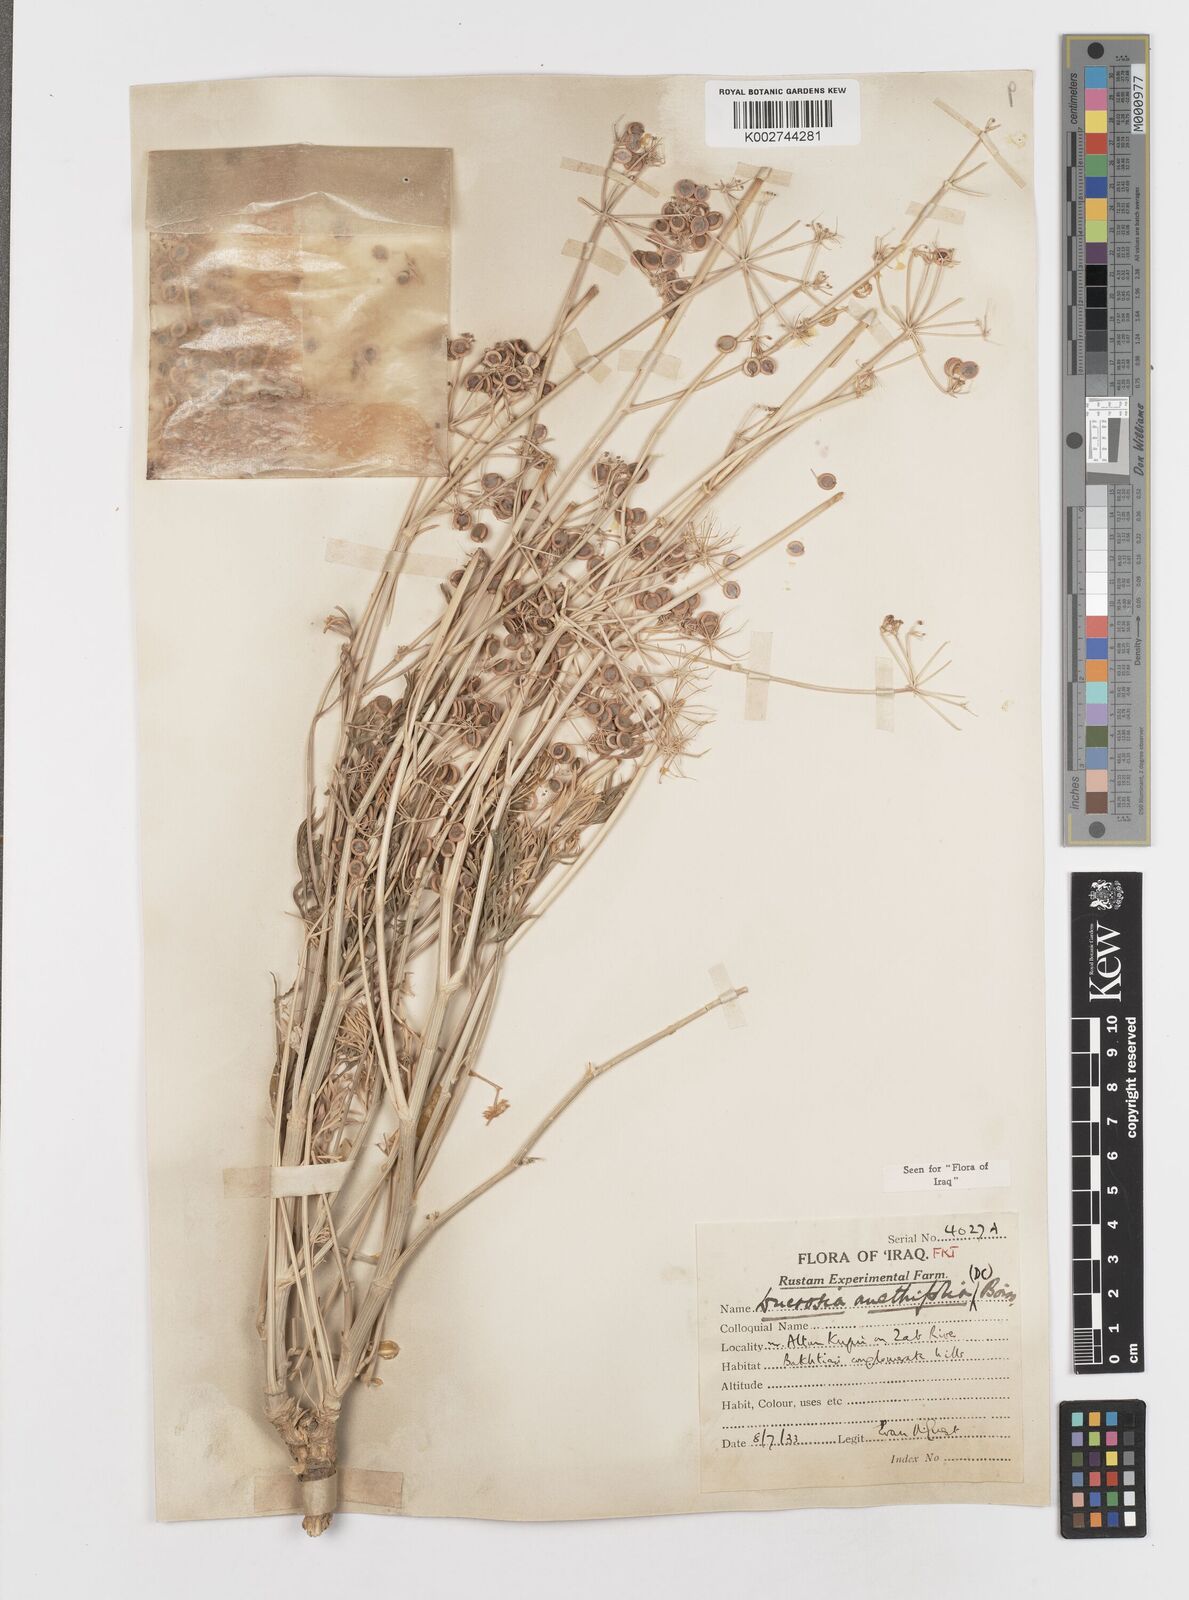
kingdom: Plantae
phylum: Tracheophyta
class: Magnoliopsida
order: Apiales
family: Apiaceae
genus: Ducrosia
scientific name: Ducrosia anethifolia
